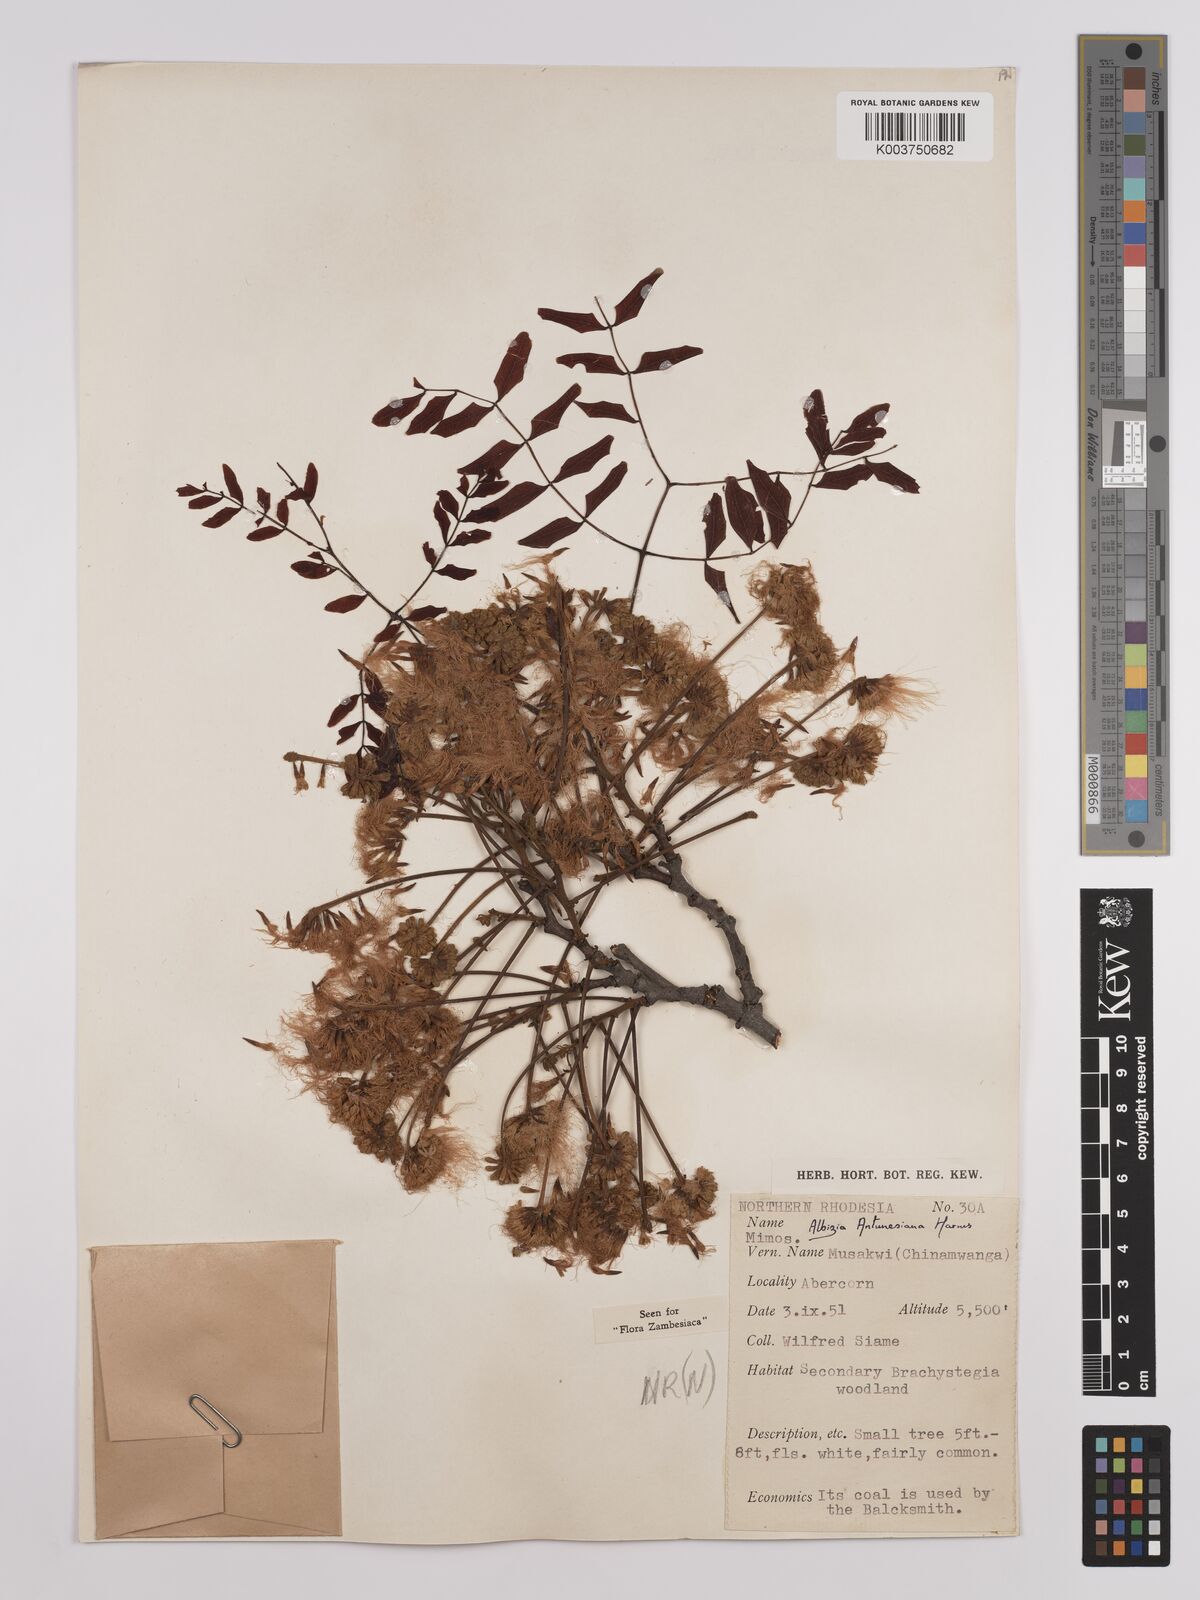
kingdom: Plantae
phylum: Tracheophyta
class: Magnoliopsida
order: Fabales
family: Fabaceae
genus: Albizia
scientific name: Albizia antunesiana
